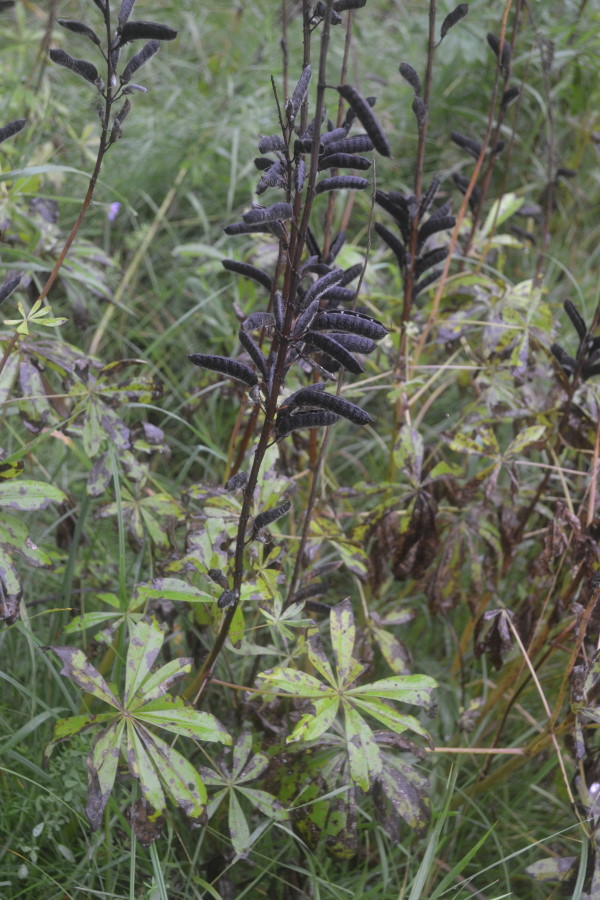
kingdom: Plantae
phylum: Tracheophyta
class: Magnoliopsida
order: Fabales
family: Fabaceae
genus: Lupinus
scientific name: Lupinus polyphyllus
